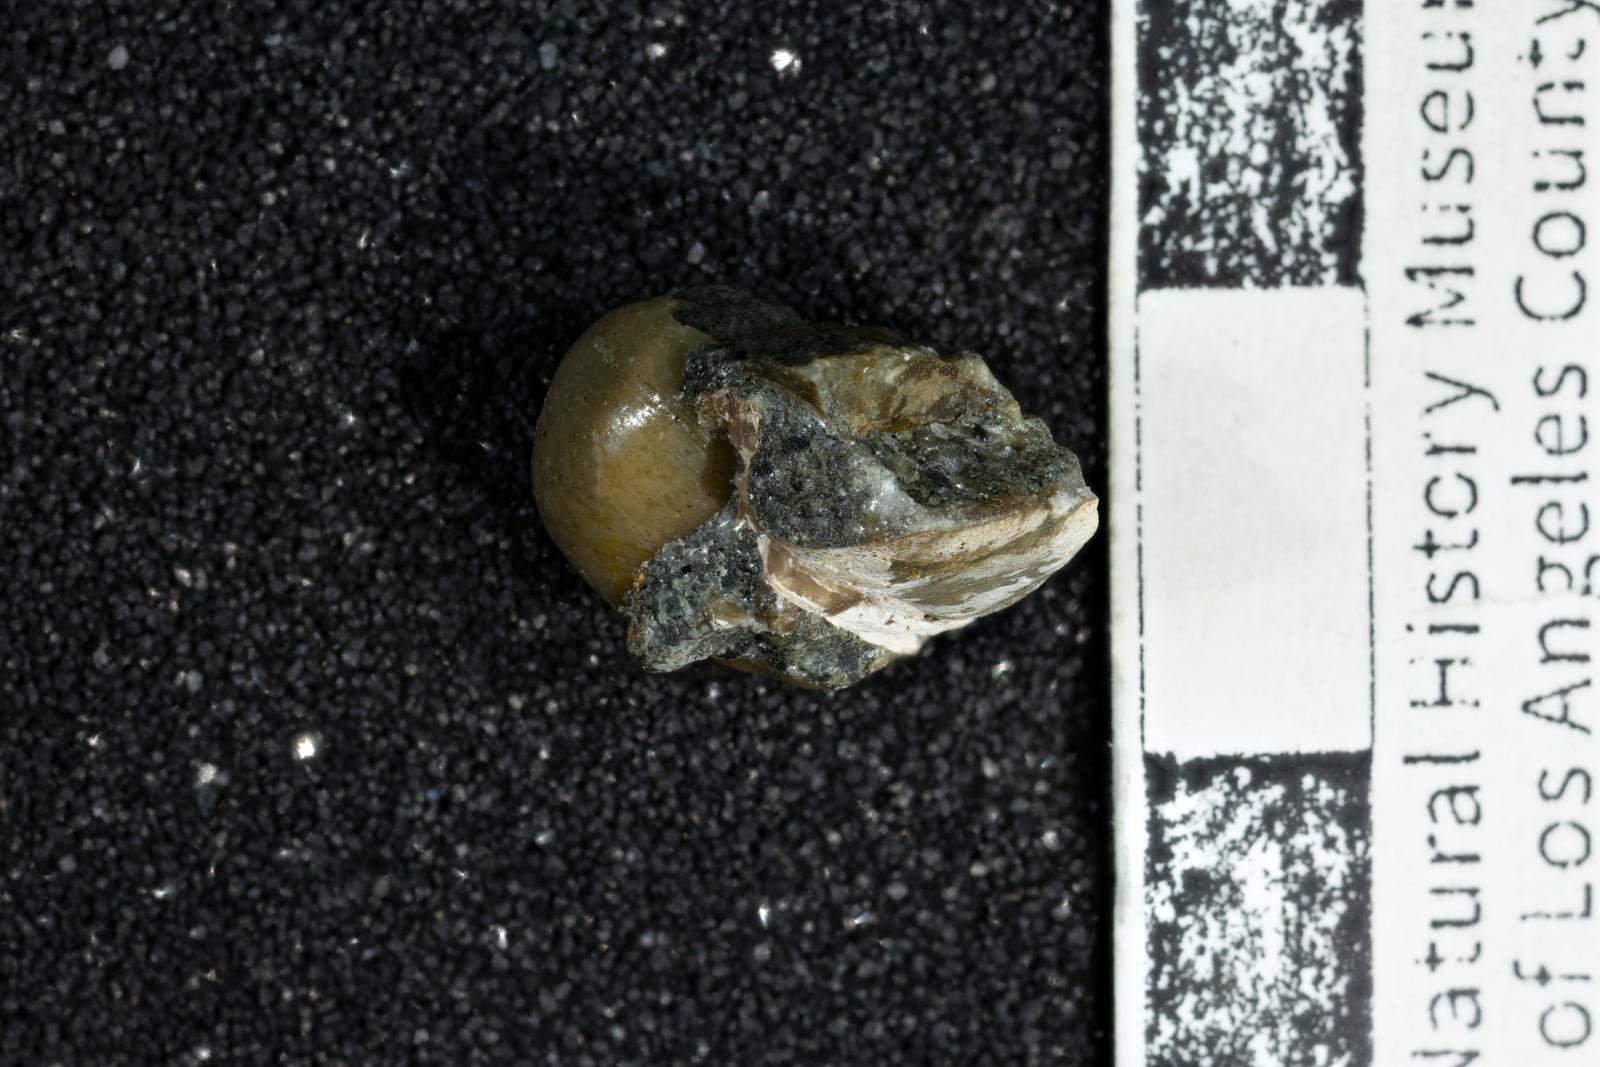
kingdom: Animalia
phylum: Mollusca
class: Gastropoda
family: Gyrodidae
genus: Gyrodes
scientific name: Gyrodes quercus
